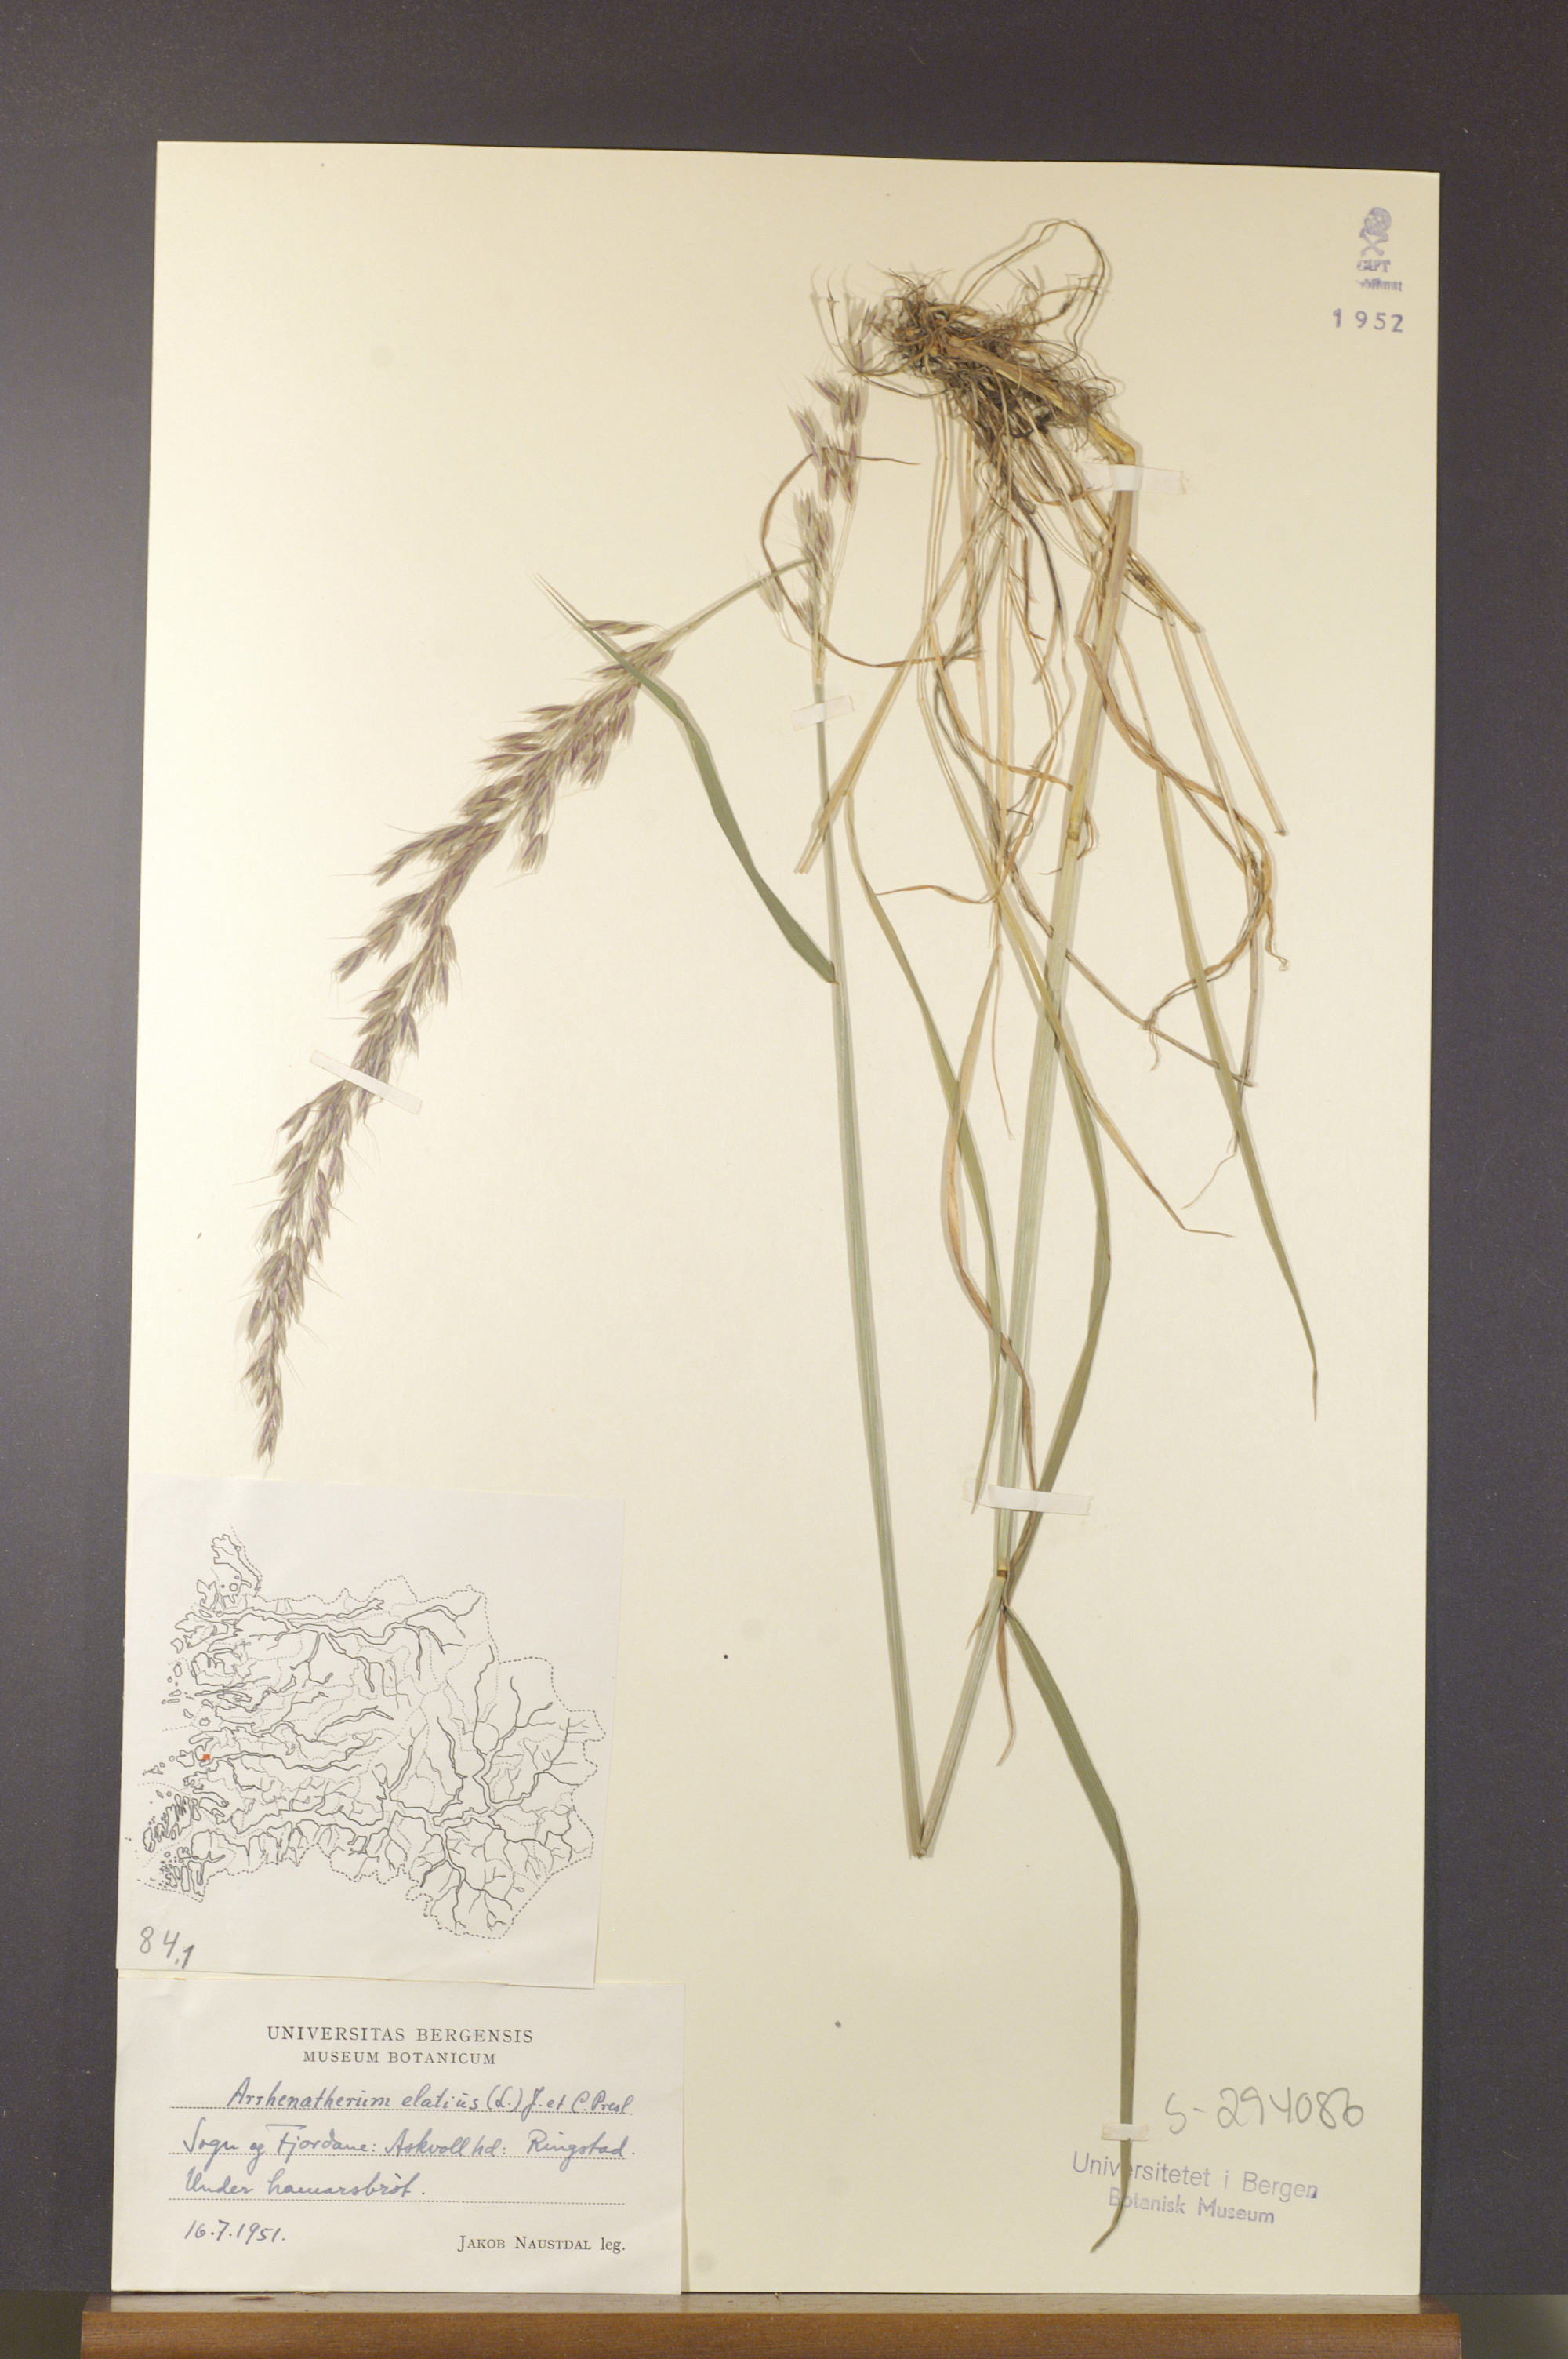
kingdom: Plantae
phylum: Tracheophyta
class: Liliopsida
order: Poales
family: Poaceae
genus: Arrhenatherum
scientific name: Arrhenatherum elatius
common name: Tall oatgrass
